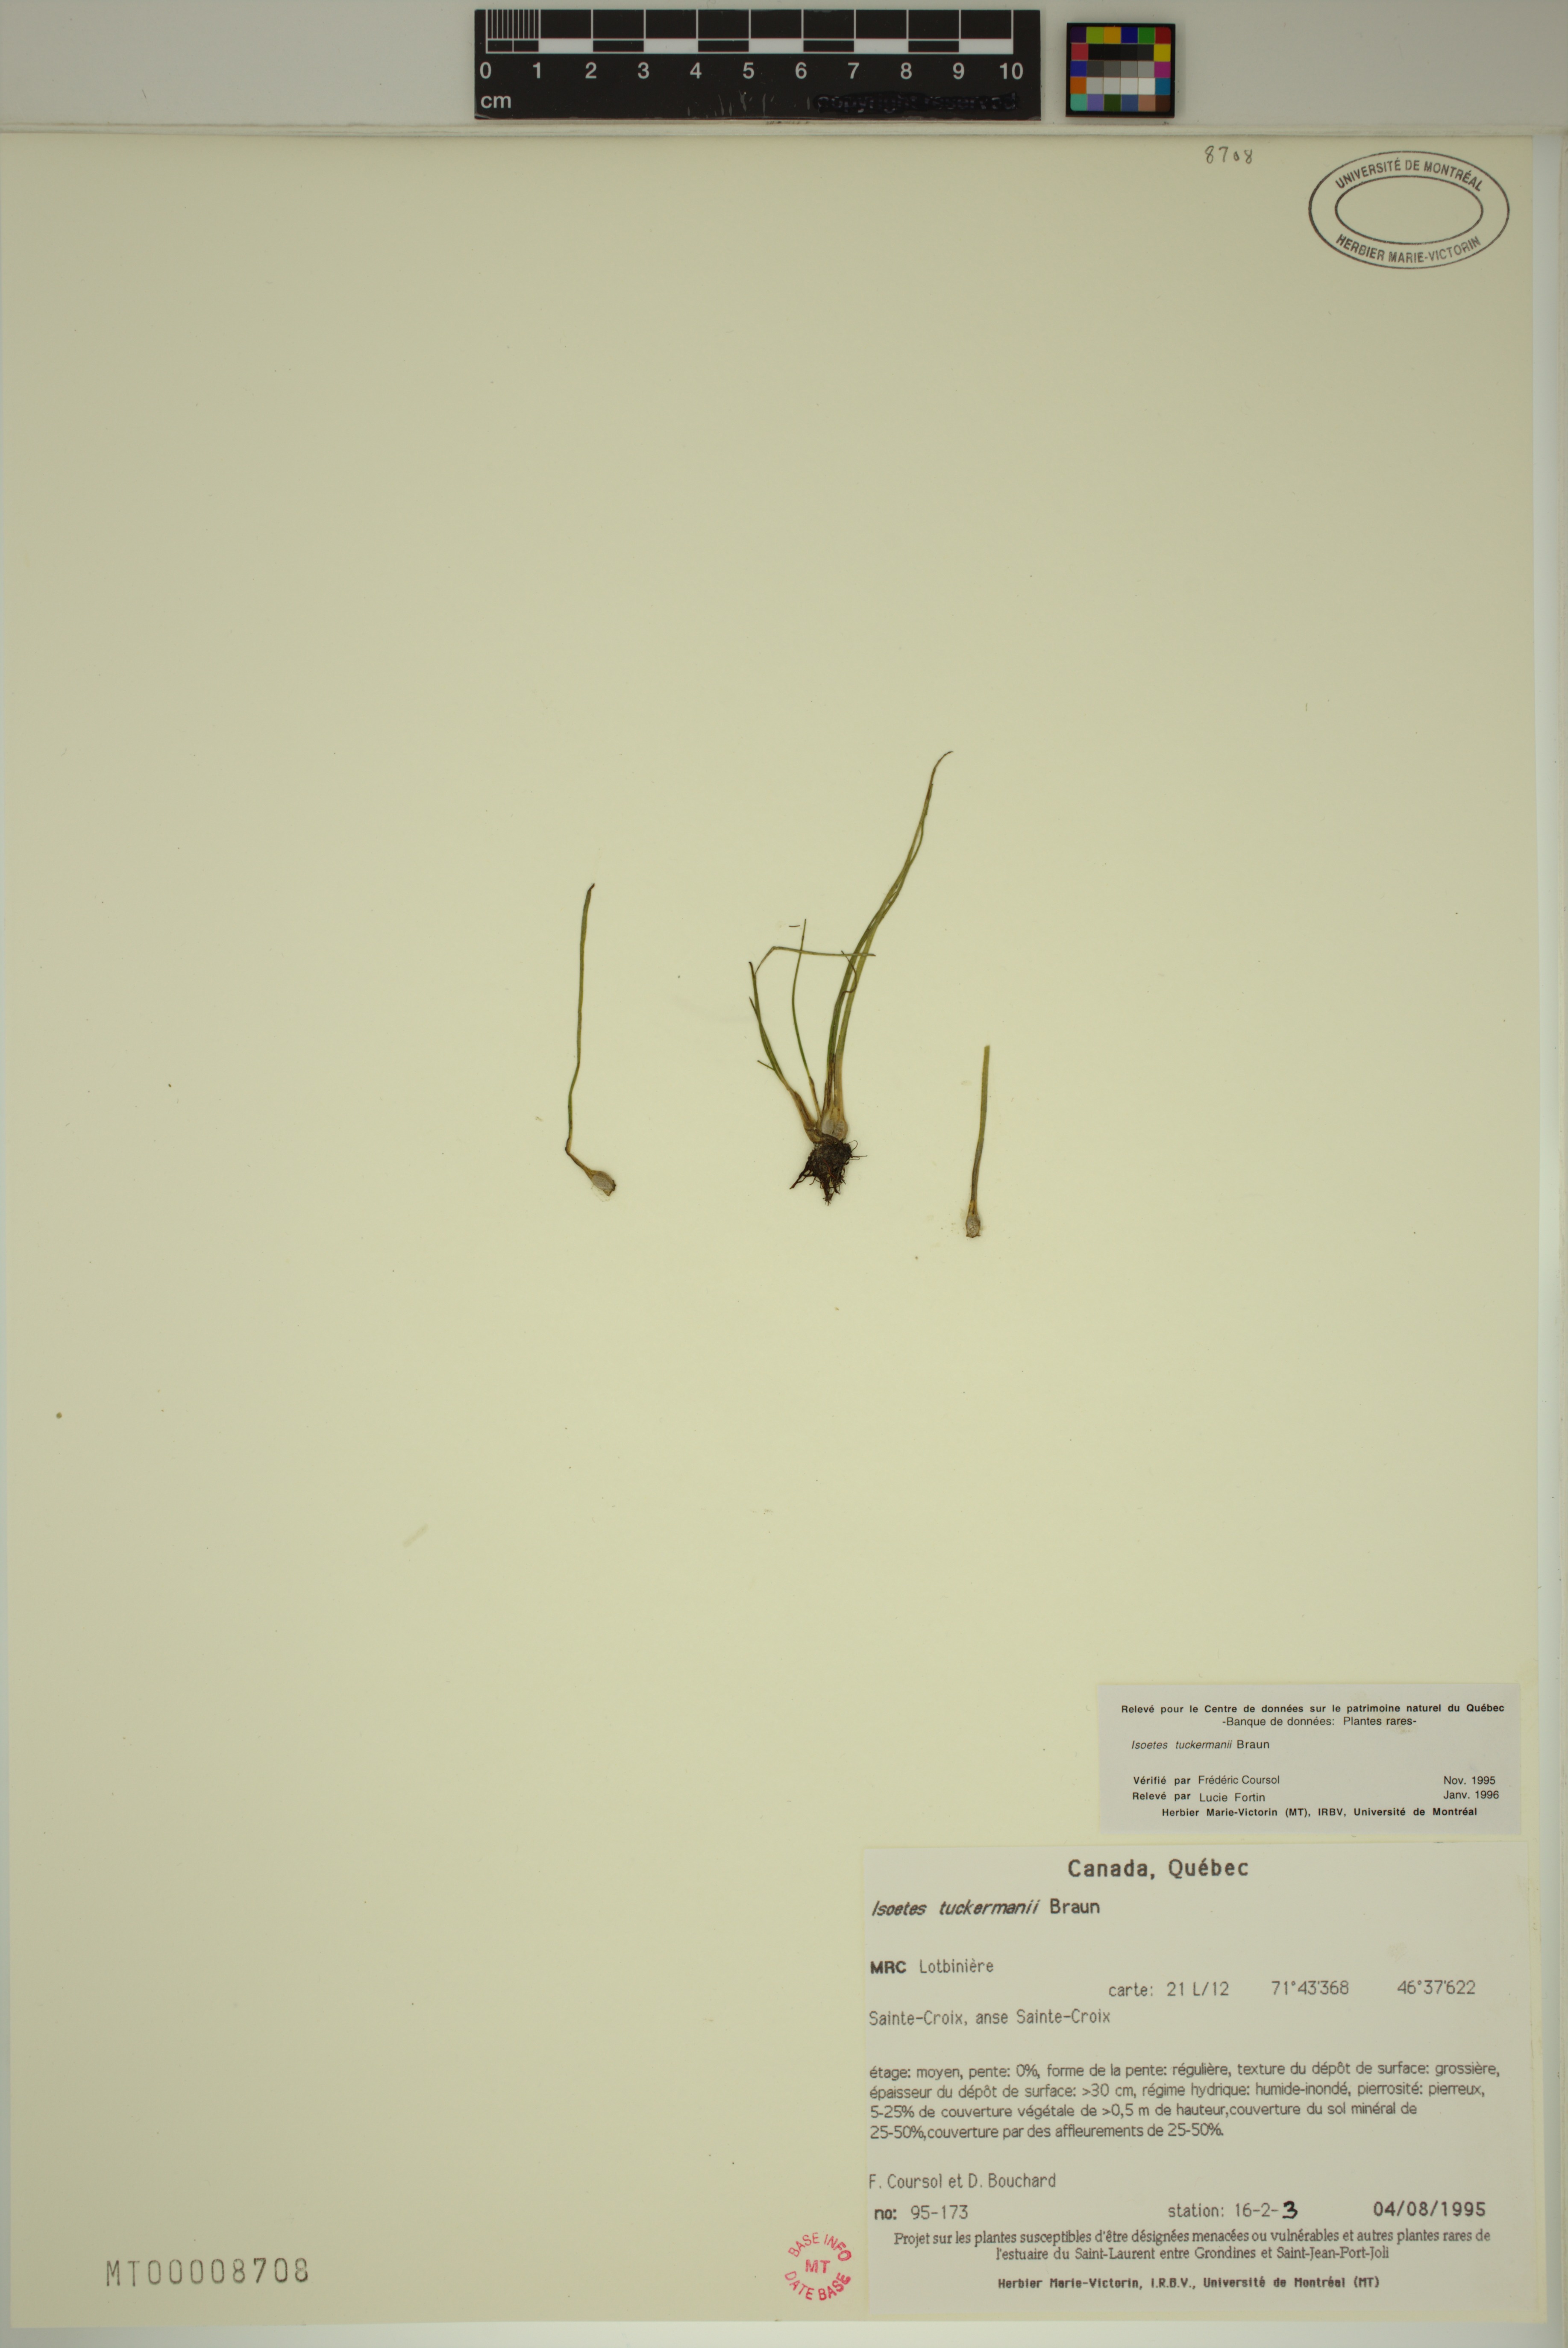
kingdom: Plantae
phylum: Tracheophyta
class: Lycopodiopsida
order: Isoetales
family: Isoetaceae
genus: Isoetes
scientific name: Isoetes laurentiana
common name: St. lawrence quillwort
